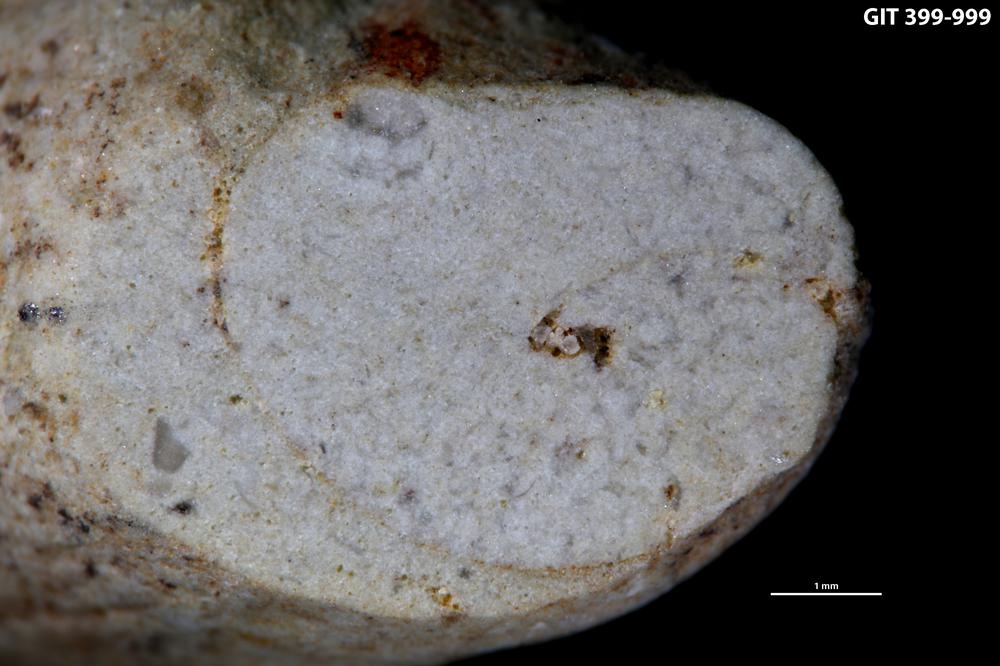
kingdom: Animalia
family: Coprulidae
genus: Coprulus
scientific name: Coprulus
